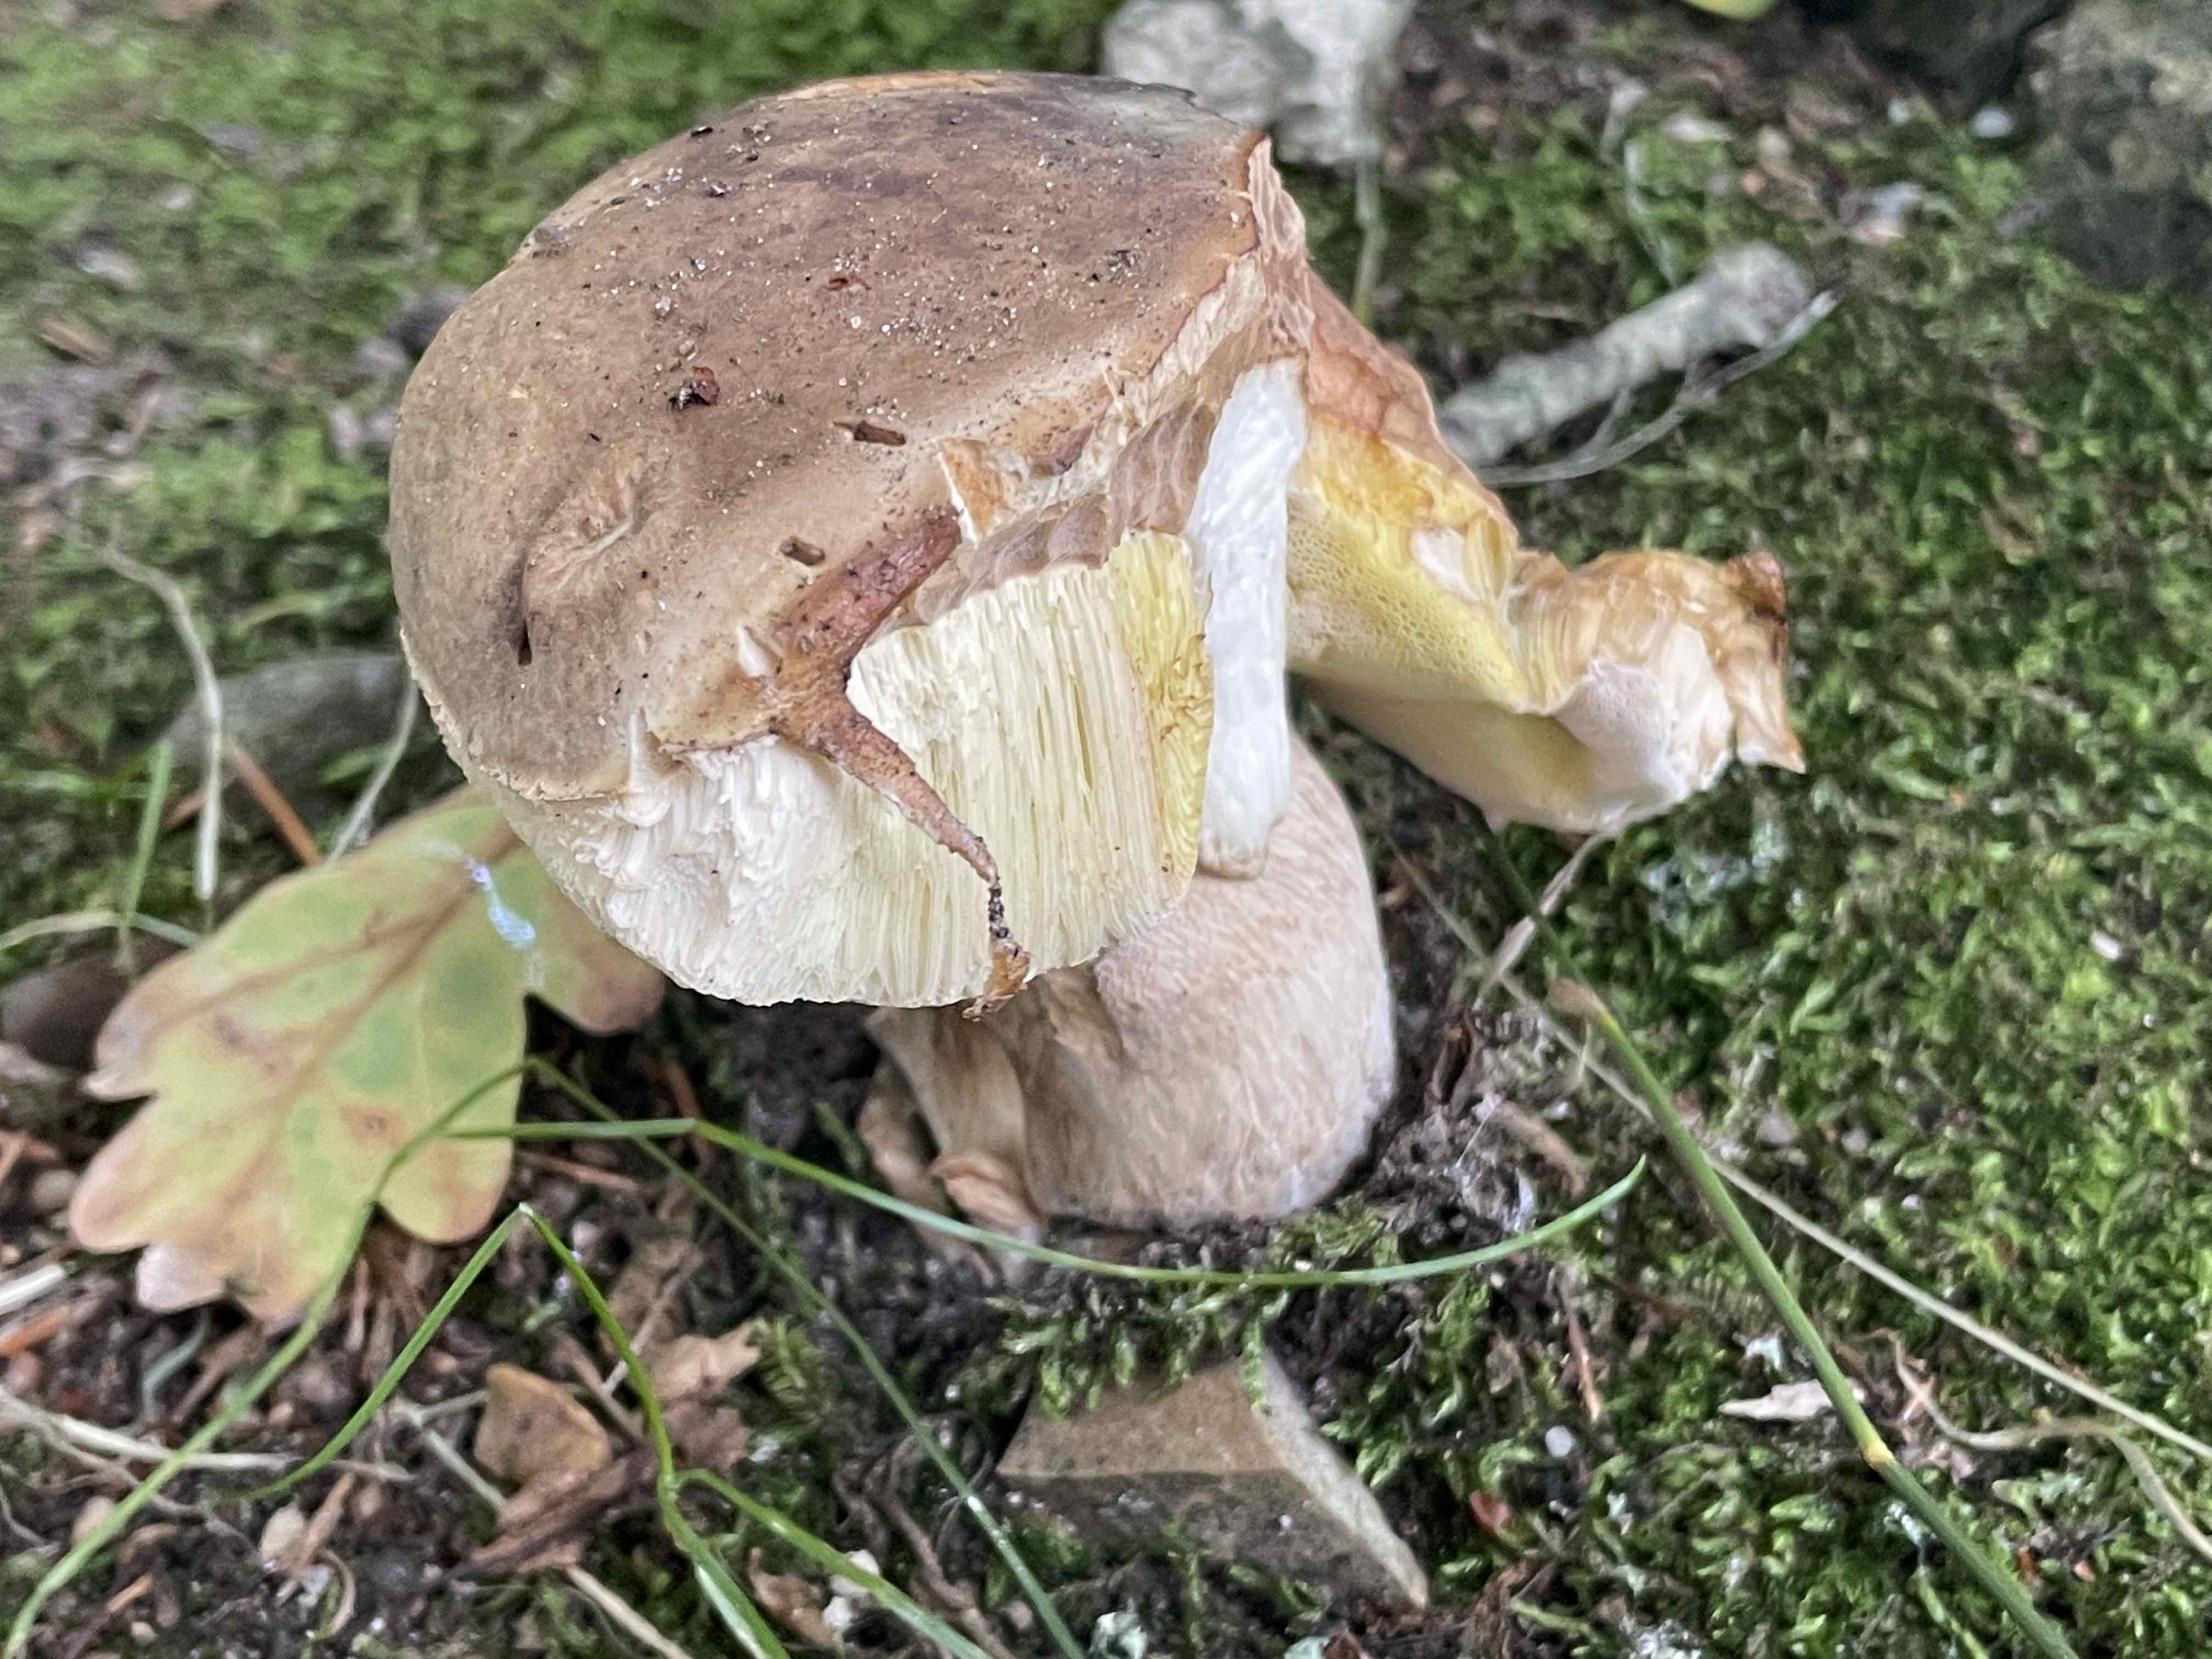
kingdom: Fungi
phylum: Basidiomycota
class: Agaricomycetes
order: Boletales
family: Boletaceae
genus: Boletus
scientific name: Boletus edulis
